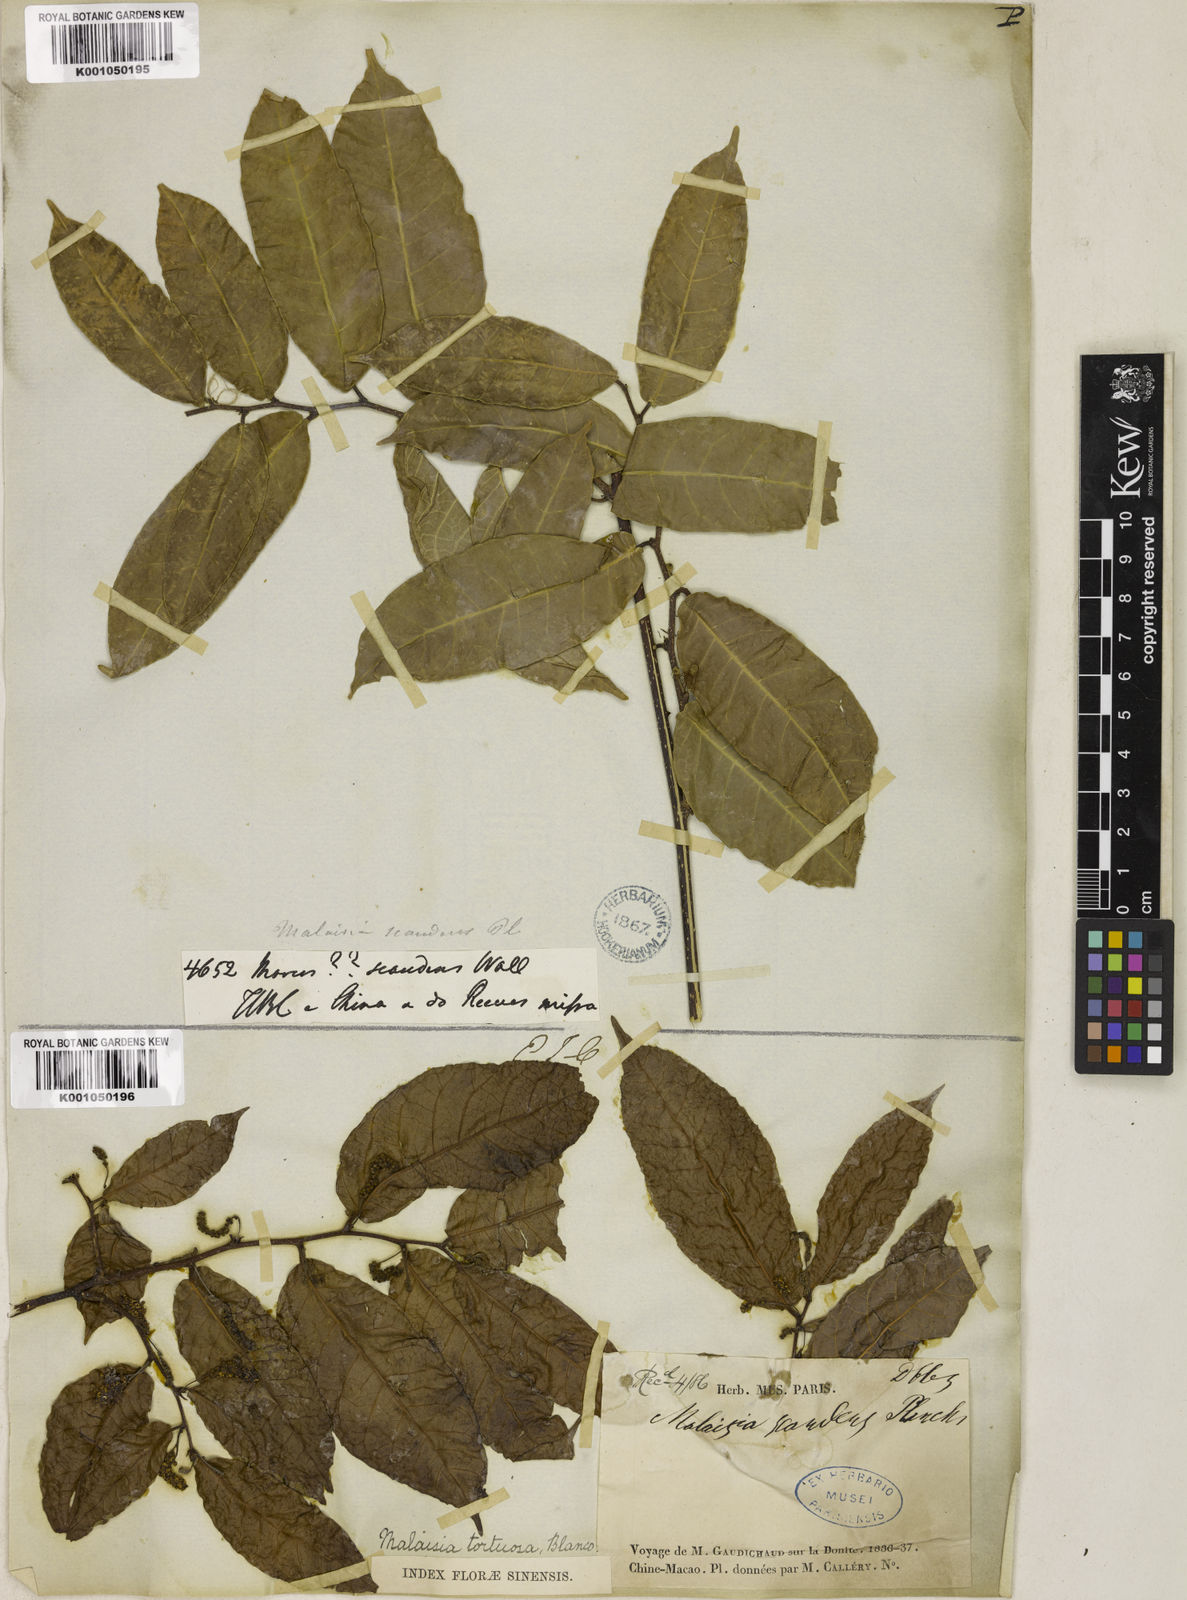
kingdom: Plantae
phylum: Tracheophyta
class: Magnoliopsida
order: Rosales
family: Moraceae
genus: Malaisia
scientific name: Malaisia scandens
